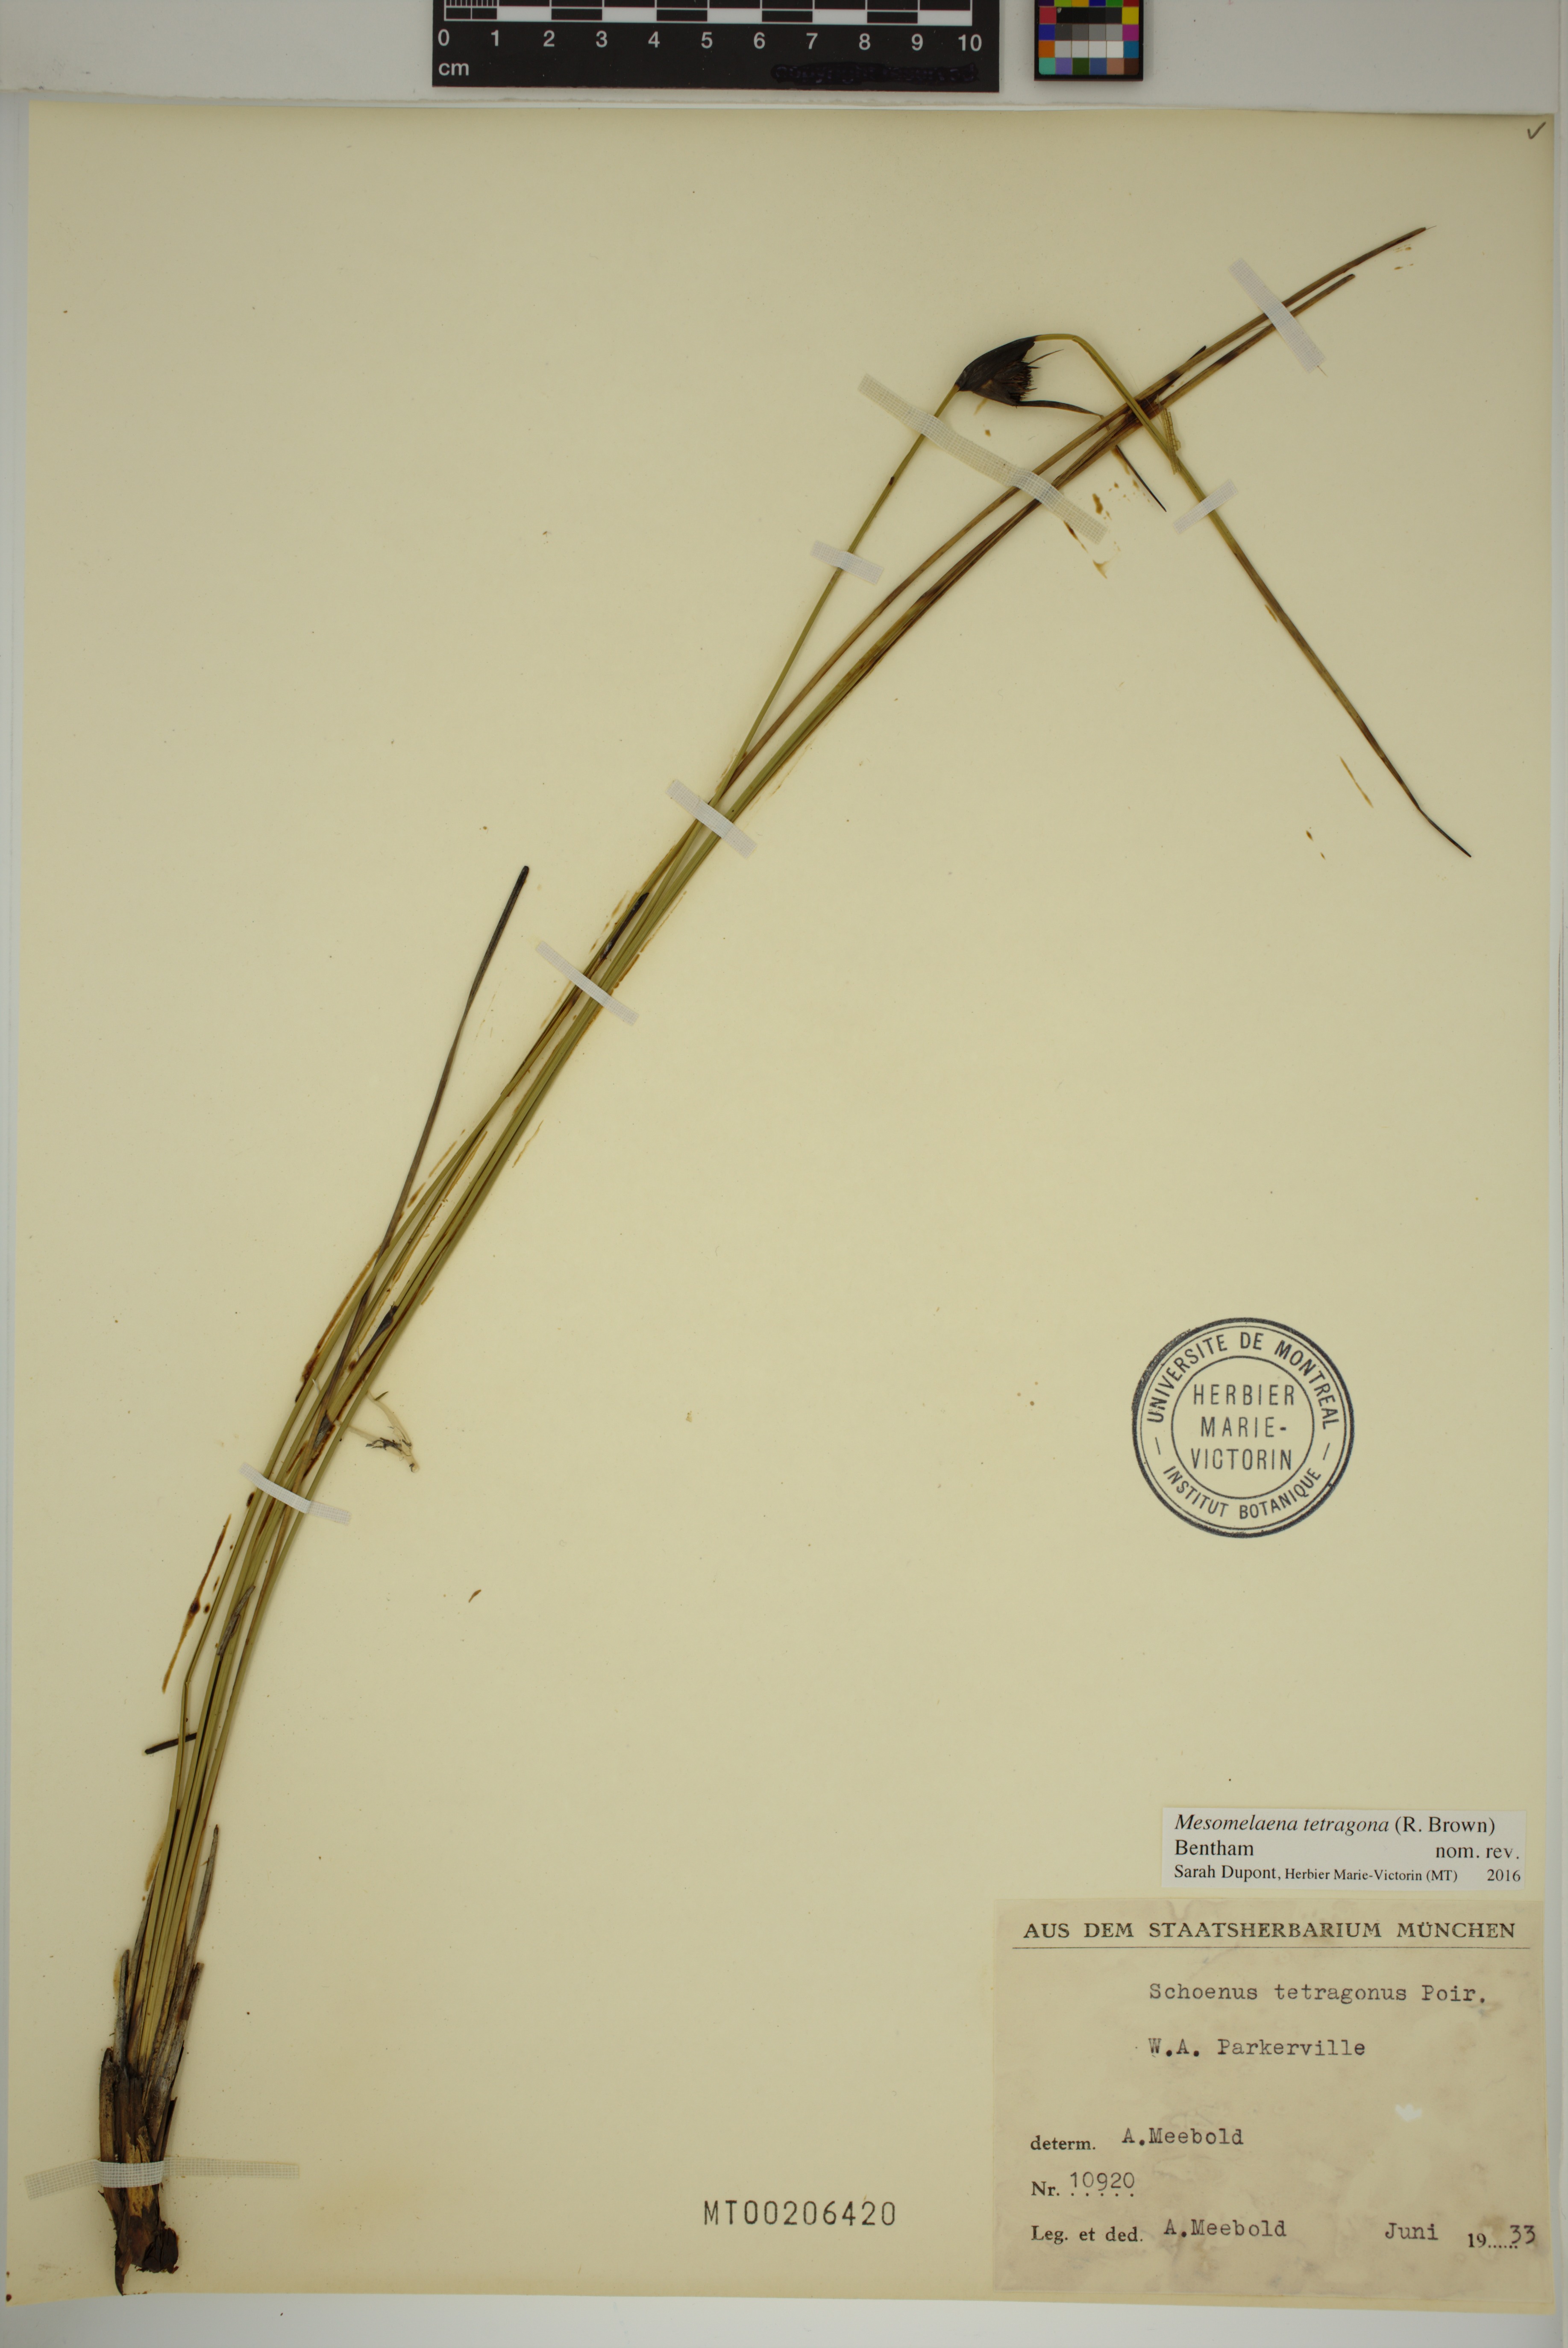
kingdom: Plantae
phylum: Tracheophyta
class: Liliopsida
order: Poales
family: Cyperaceae
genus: Mesomelaena
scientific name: Mesomelaena tetragona
